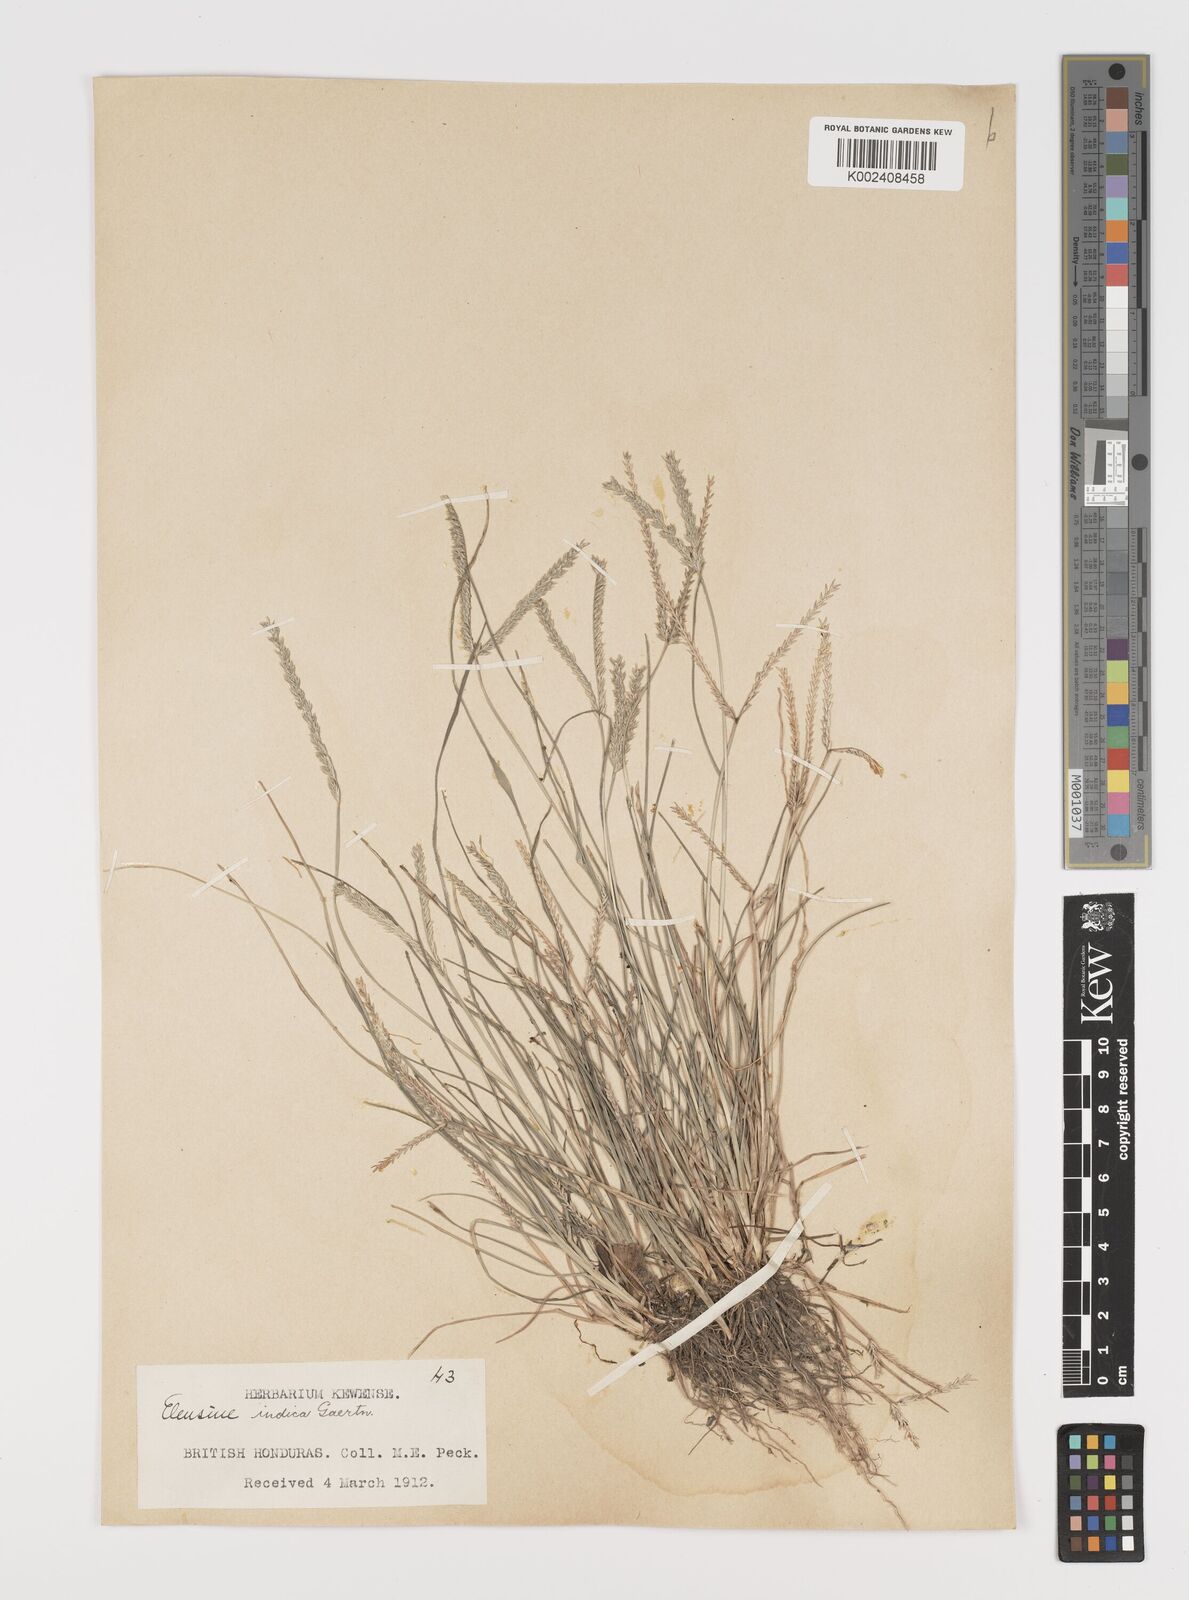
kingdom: Plantae
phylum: Tracheophyta
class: Liliopsida
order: Poales
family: Poaceae
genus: Eleusine
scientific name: Eleusine indica
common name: Yard-grass
